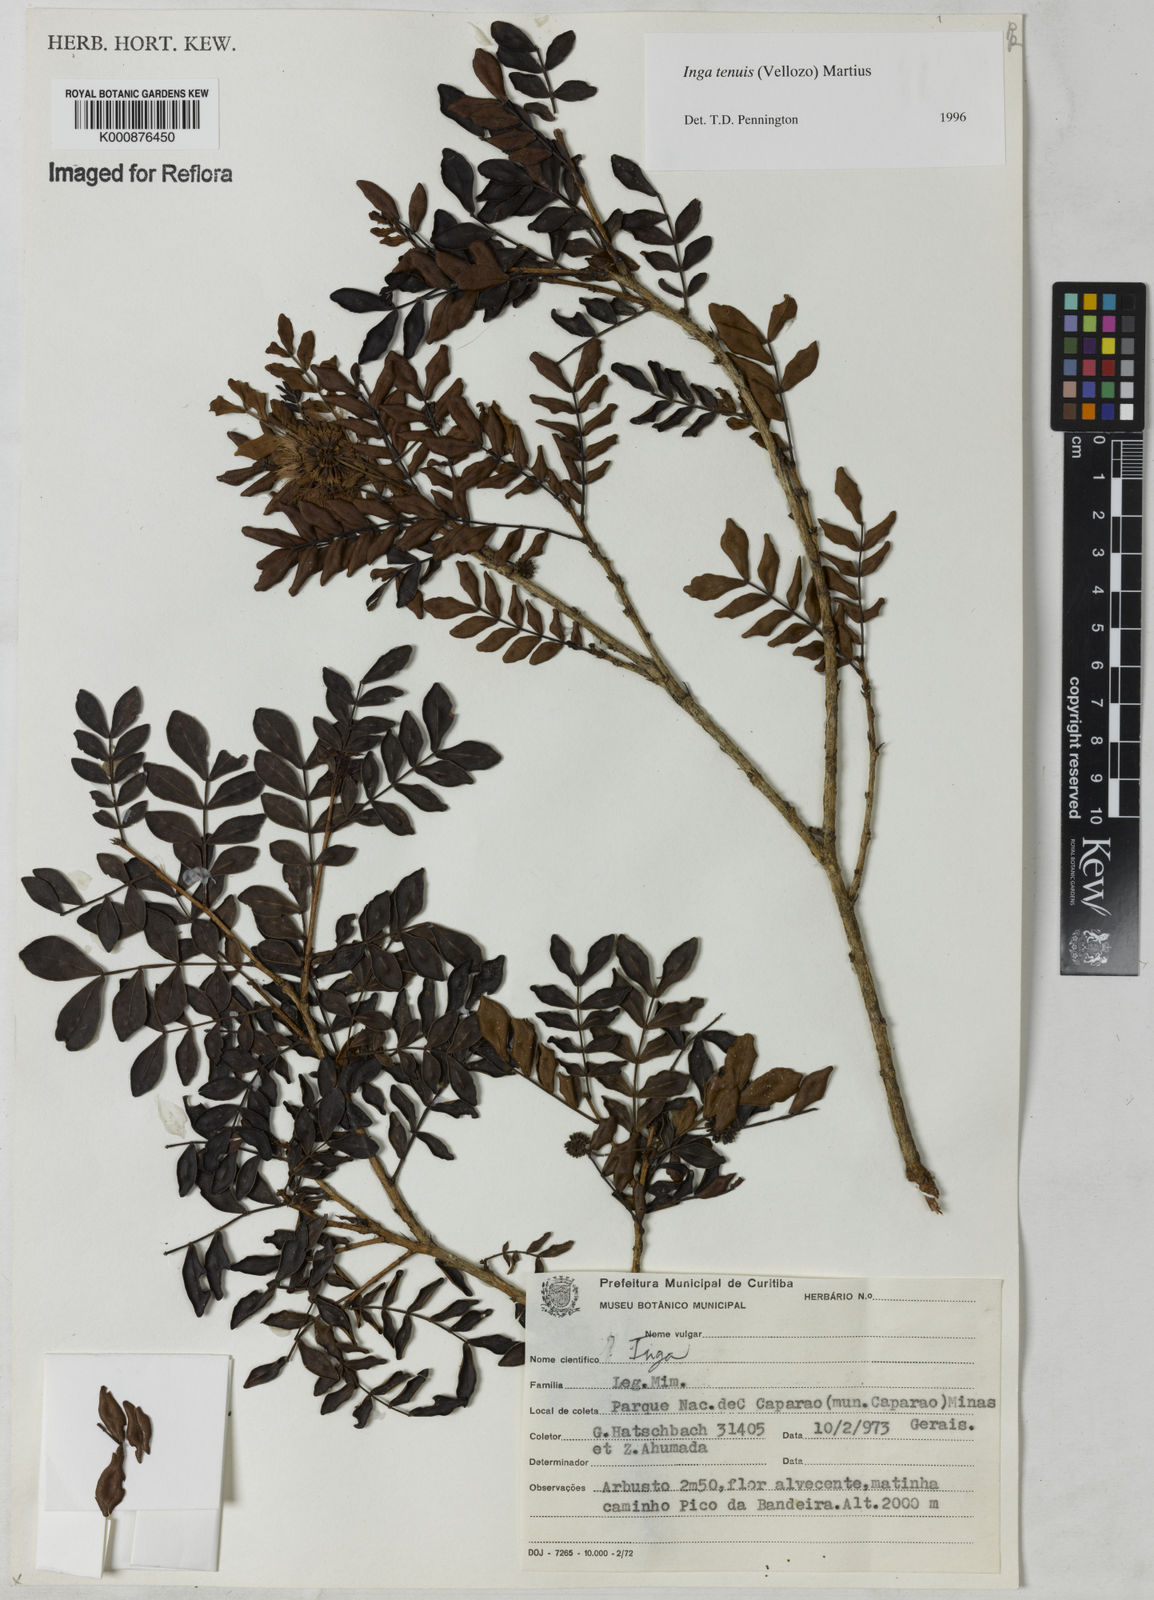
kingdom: Plantae
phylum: Tracheophyta
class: Magnoliopsida
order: Fabales
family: Fabaceae
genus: Inga
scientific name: Inga tenuis
